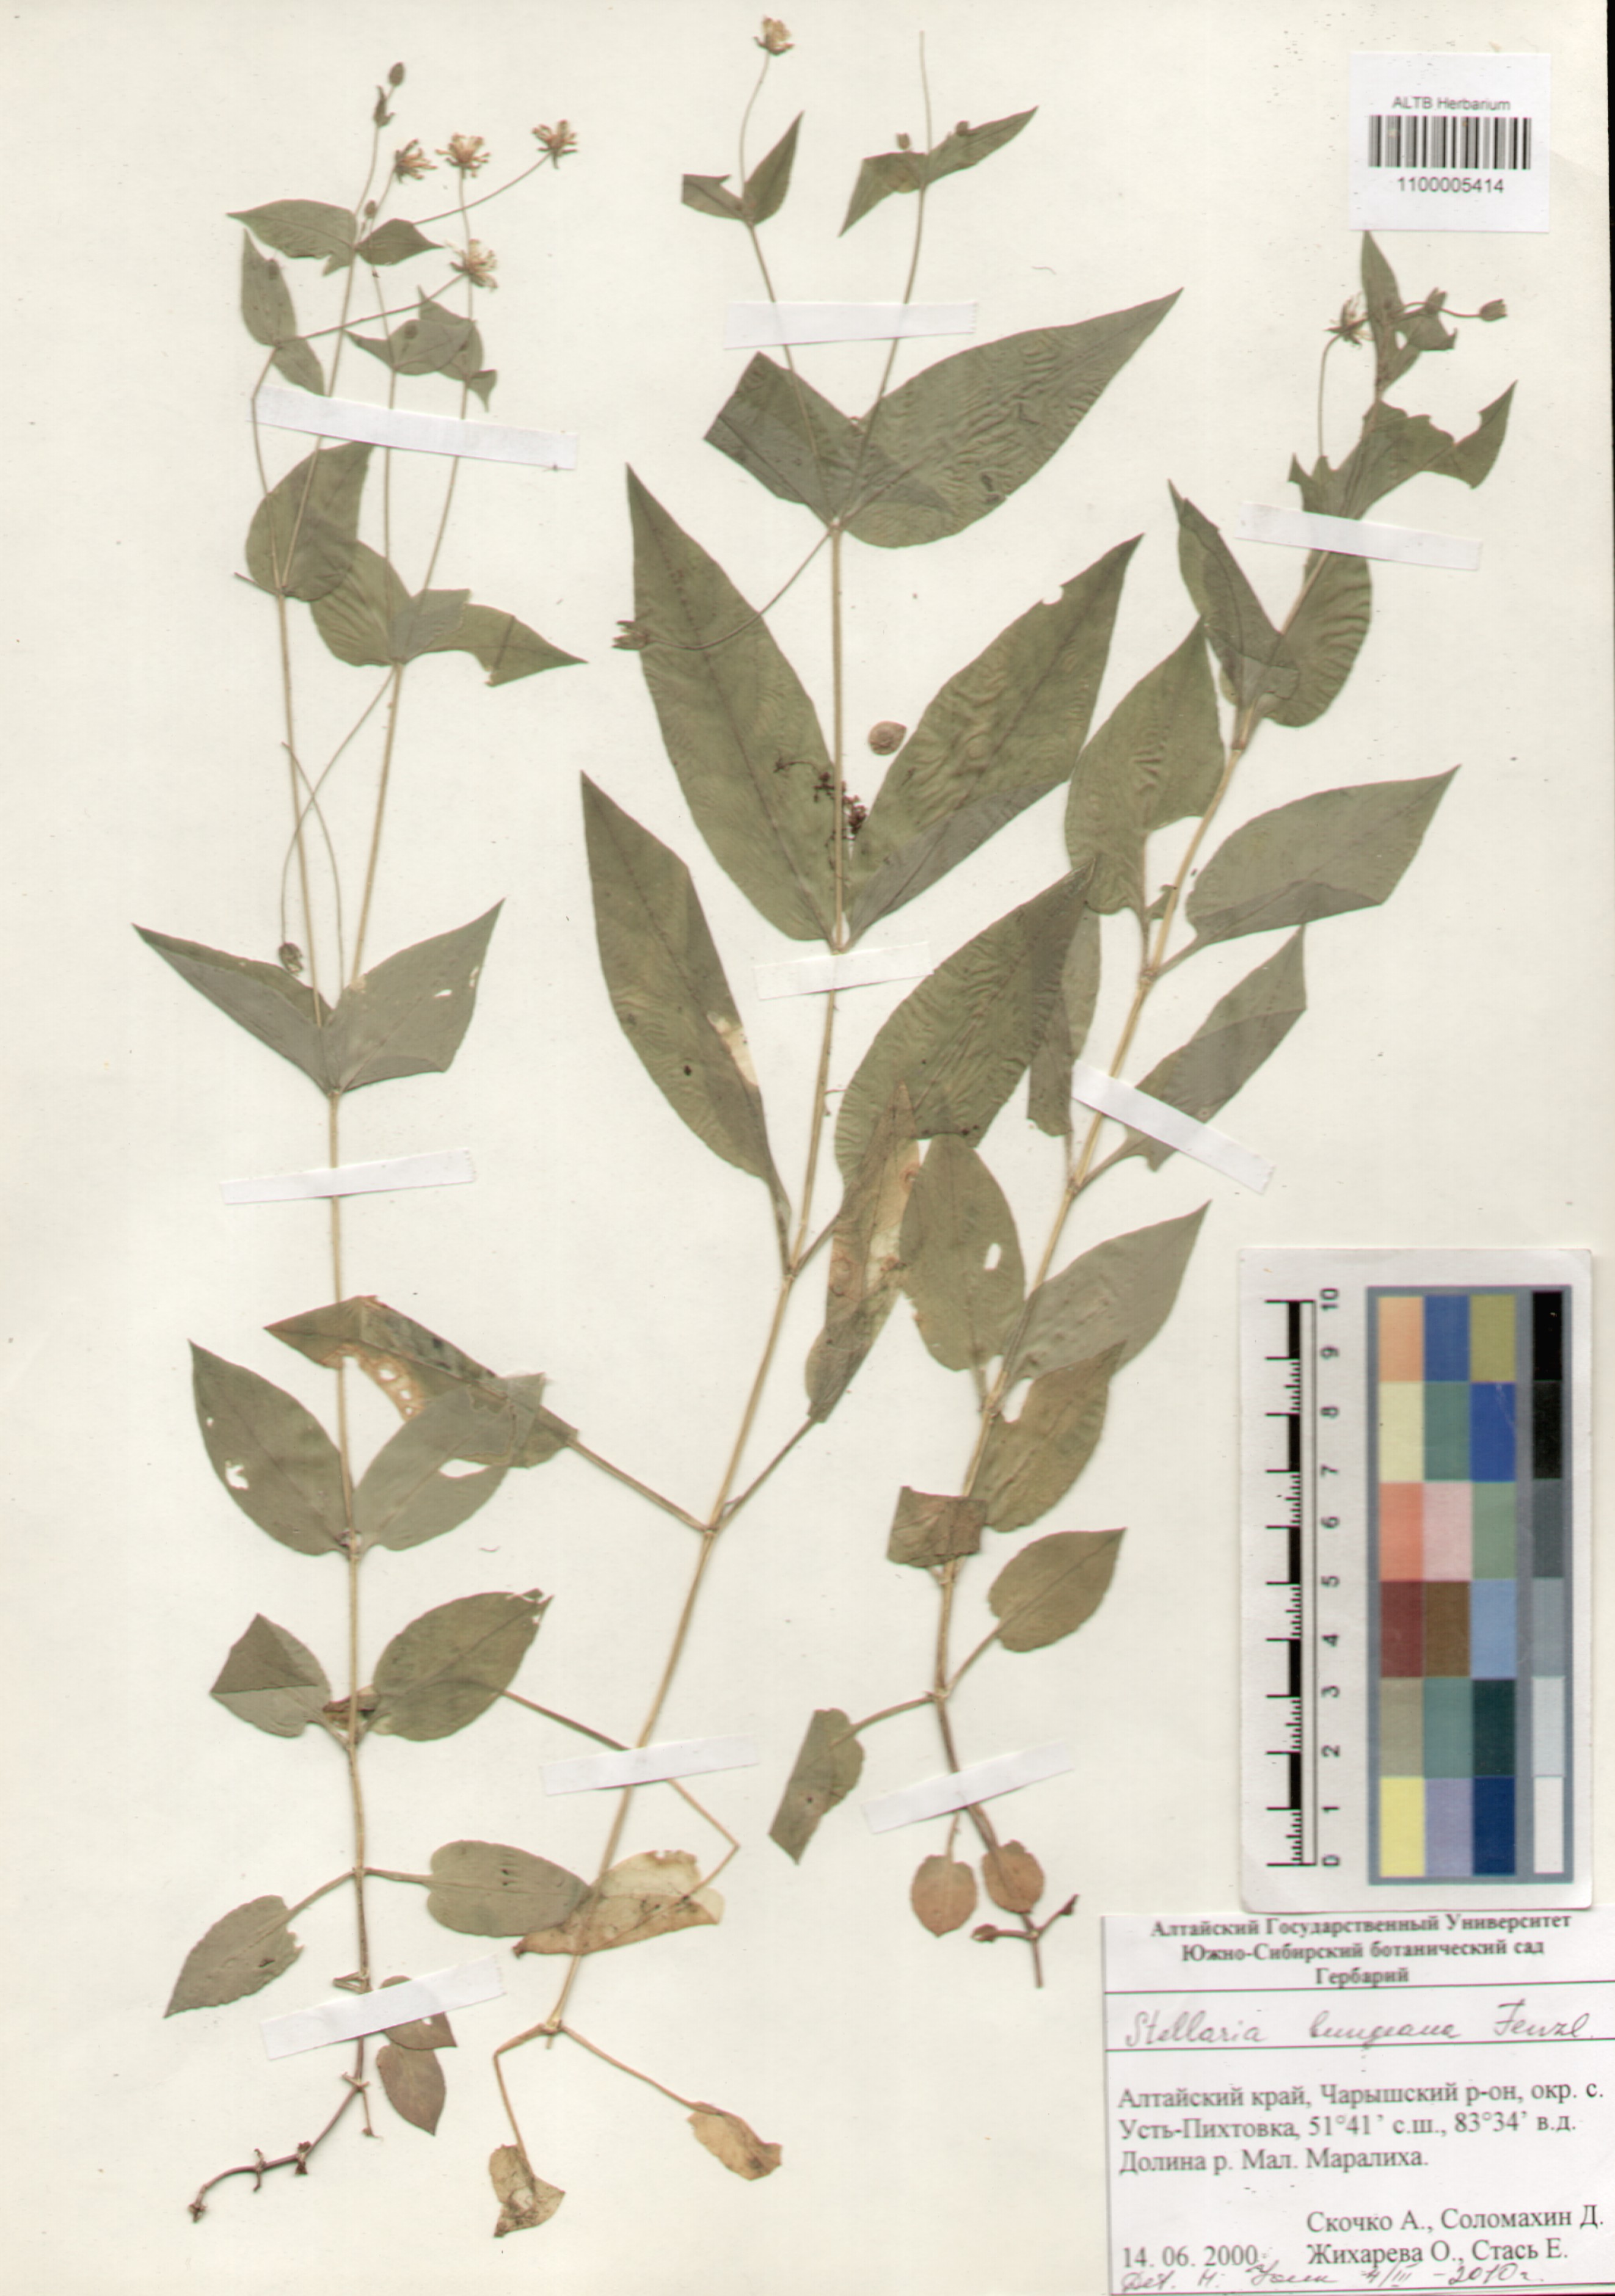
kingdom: Plantae
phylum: Tracheophyta
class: Magnoliopsida
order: Caryophyllales
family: Caryophyllaceae
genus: Stellaria
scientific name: Stellaria bungeana
